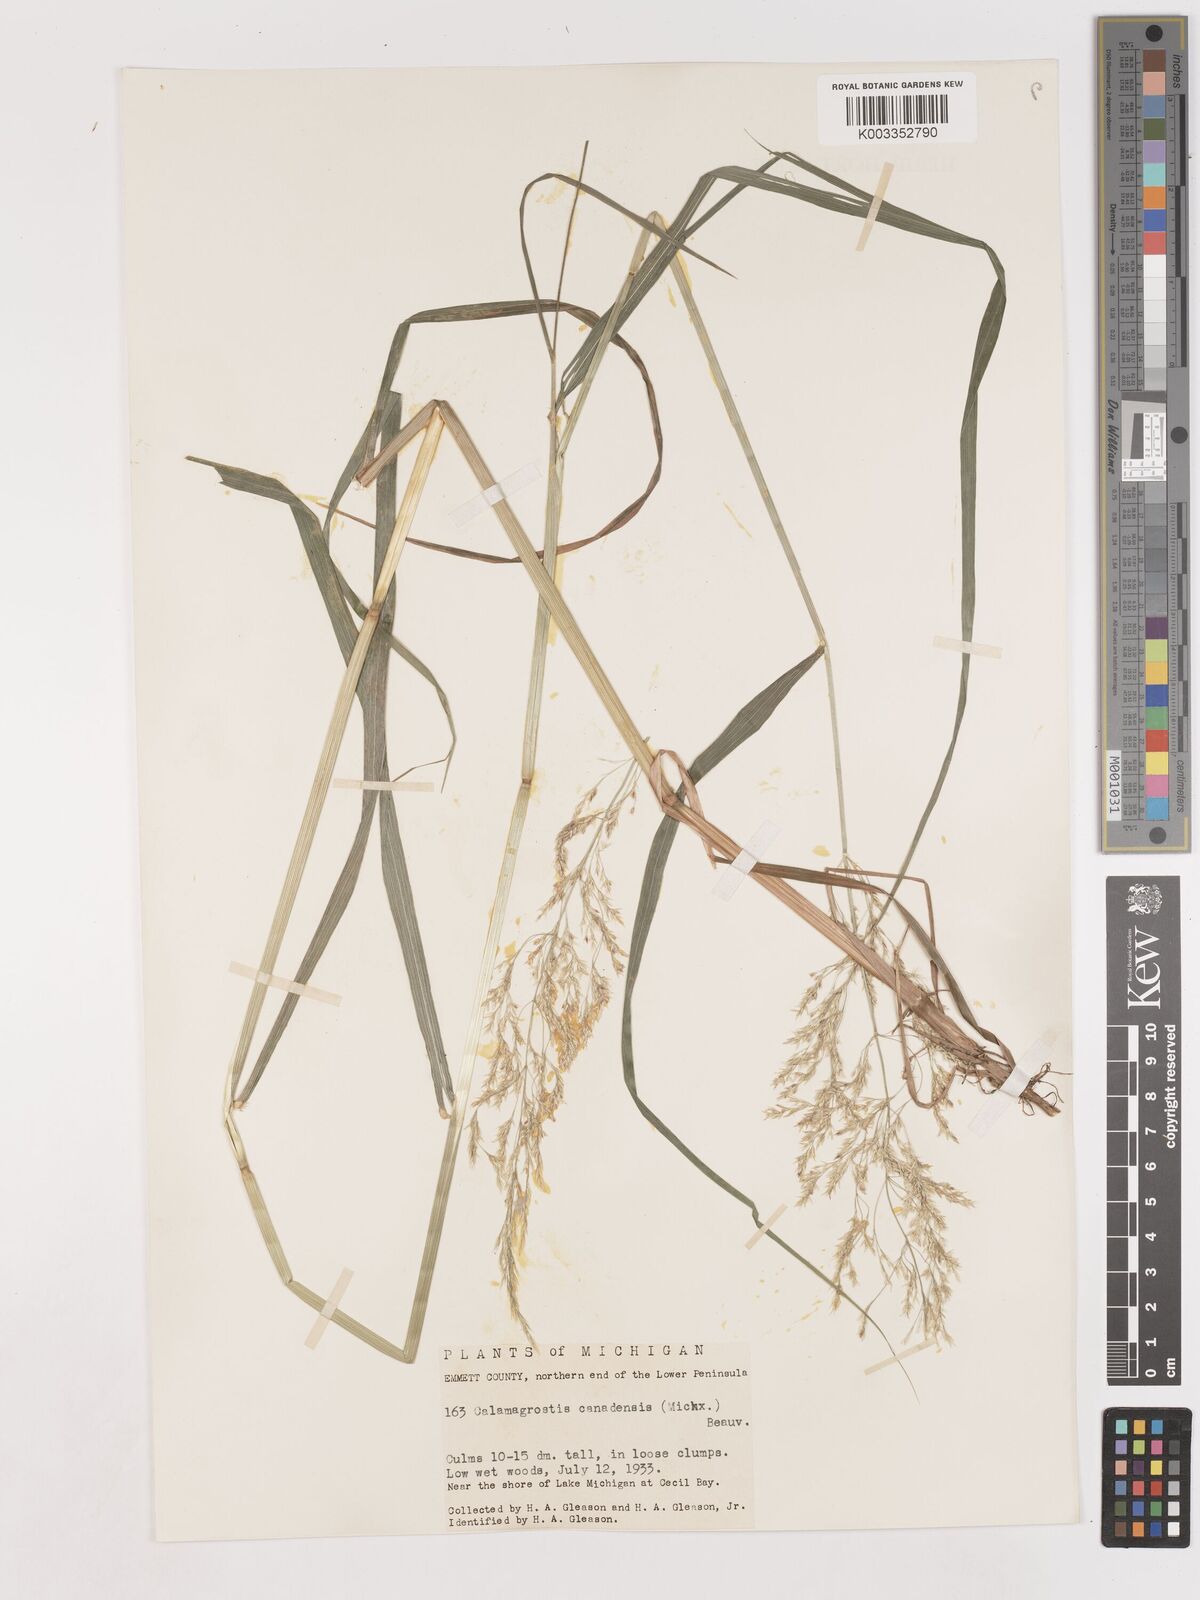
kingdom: Plantae
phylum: Tracheophyta
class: Liliopsida
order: Poales
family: Poaceae
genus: Calamagrostis
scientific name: Calamagrostis canadensis
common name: Canada bluejoint
